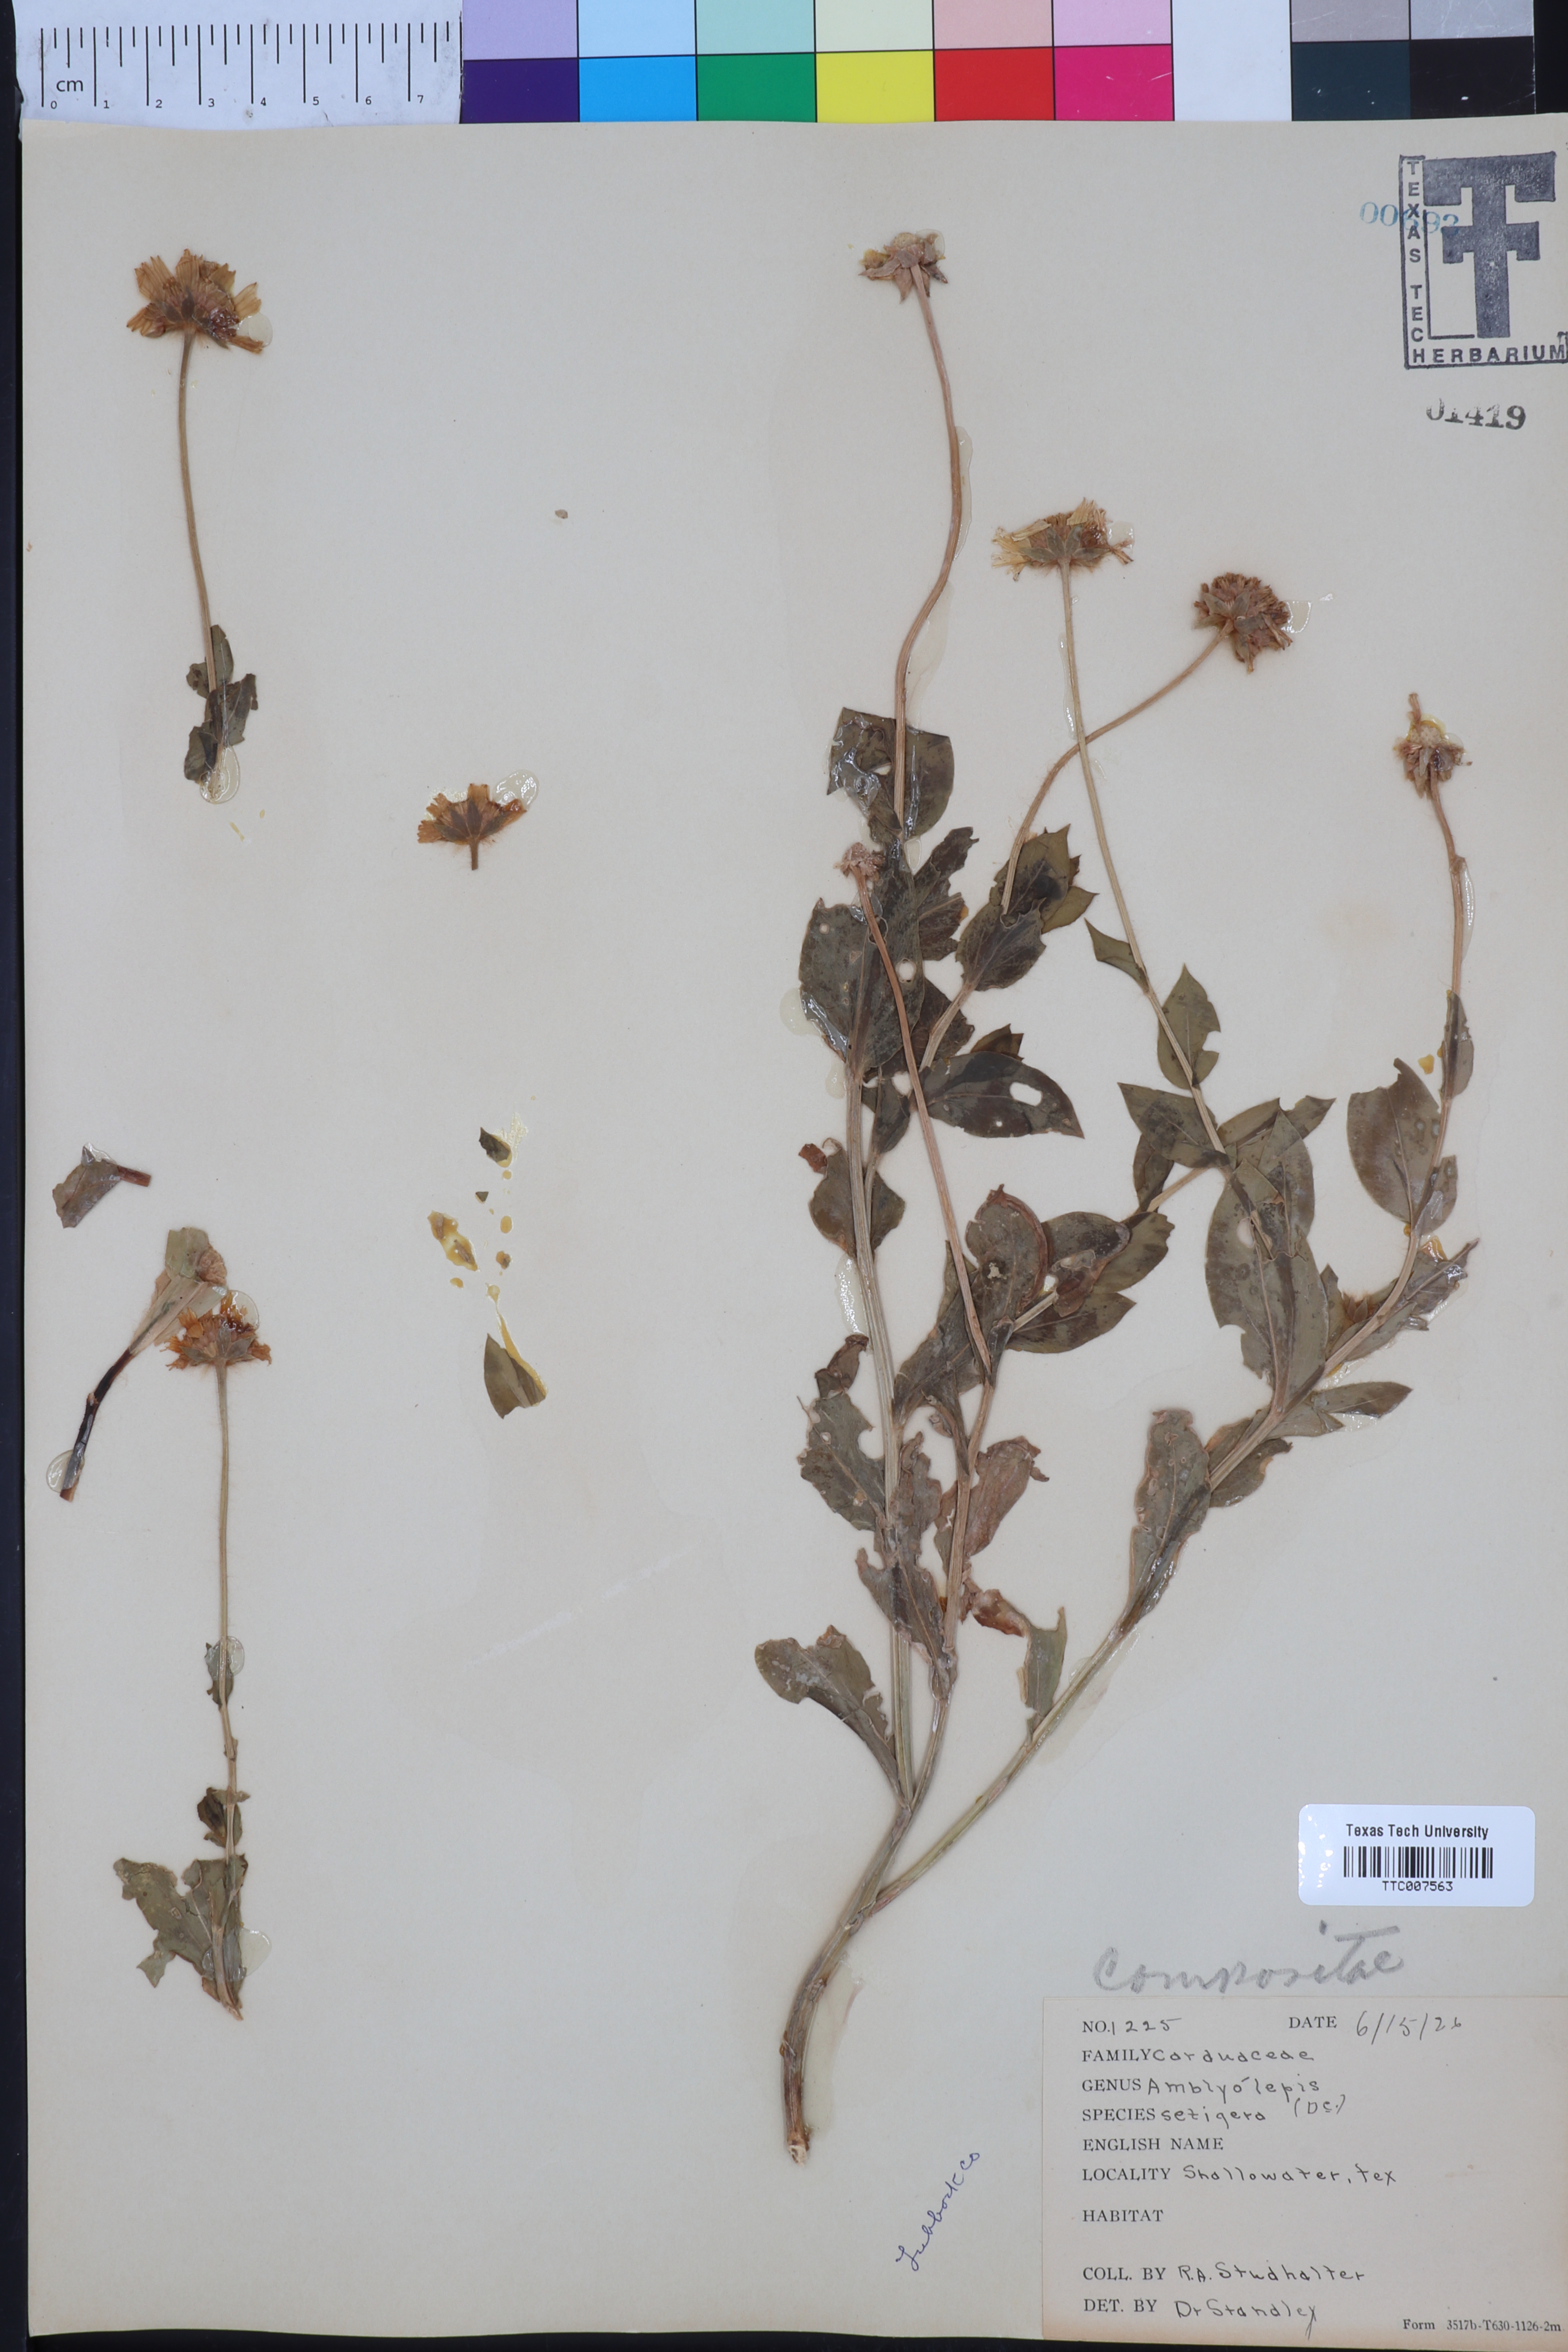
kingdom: Plantae
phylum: Tracheophyta
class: Magnoliopsida
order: Asterales
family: Asteraceae
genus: Amblyolepis
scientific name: Amblyolepis setigera
